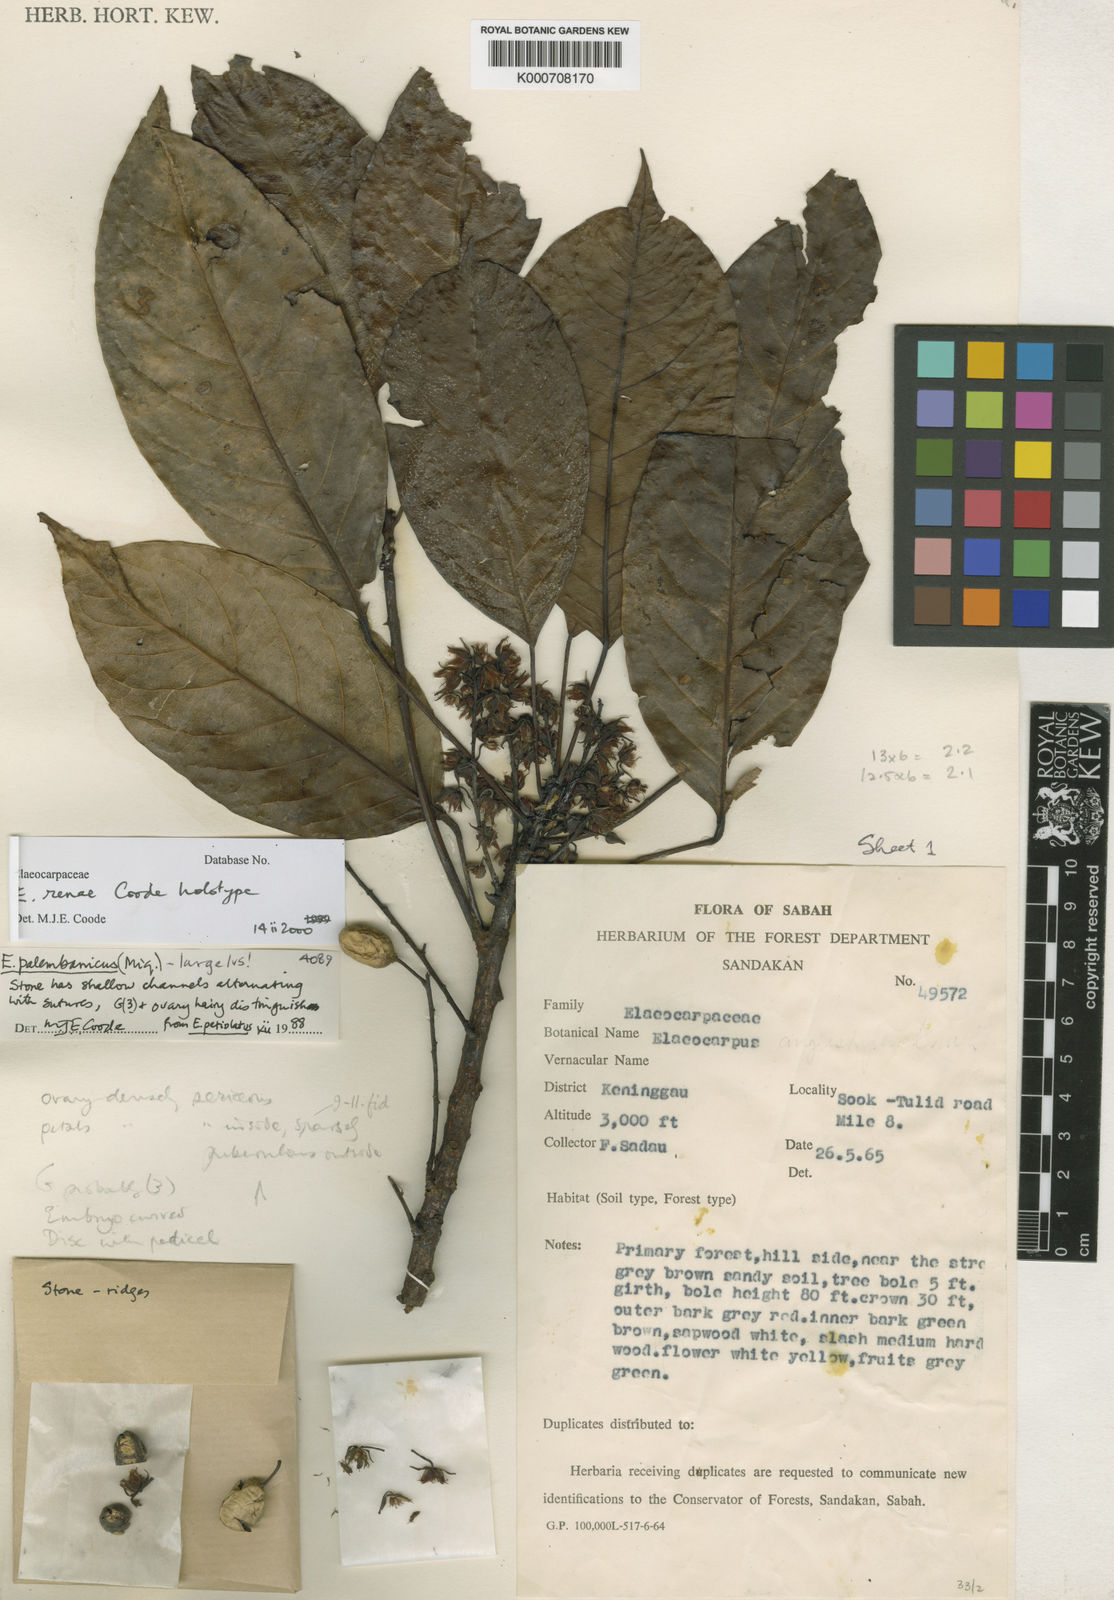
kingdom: Plantae
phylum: Tracheophyta
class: Magnoliopsida
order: Oxalidales
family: Elaeocarpaceae
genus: Elaeocarpus
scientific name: Elaeocarpus renae
